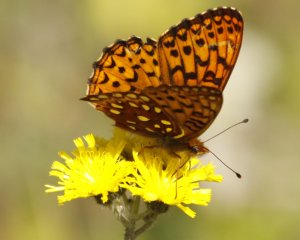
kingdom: Animalia
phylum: Arthropoda
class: Insecta
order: Lepidoptera
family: Nymphalidae
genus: Speyeria
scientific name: Speyeria atlantis
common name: Northwestern Fritillary
